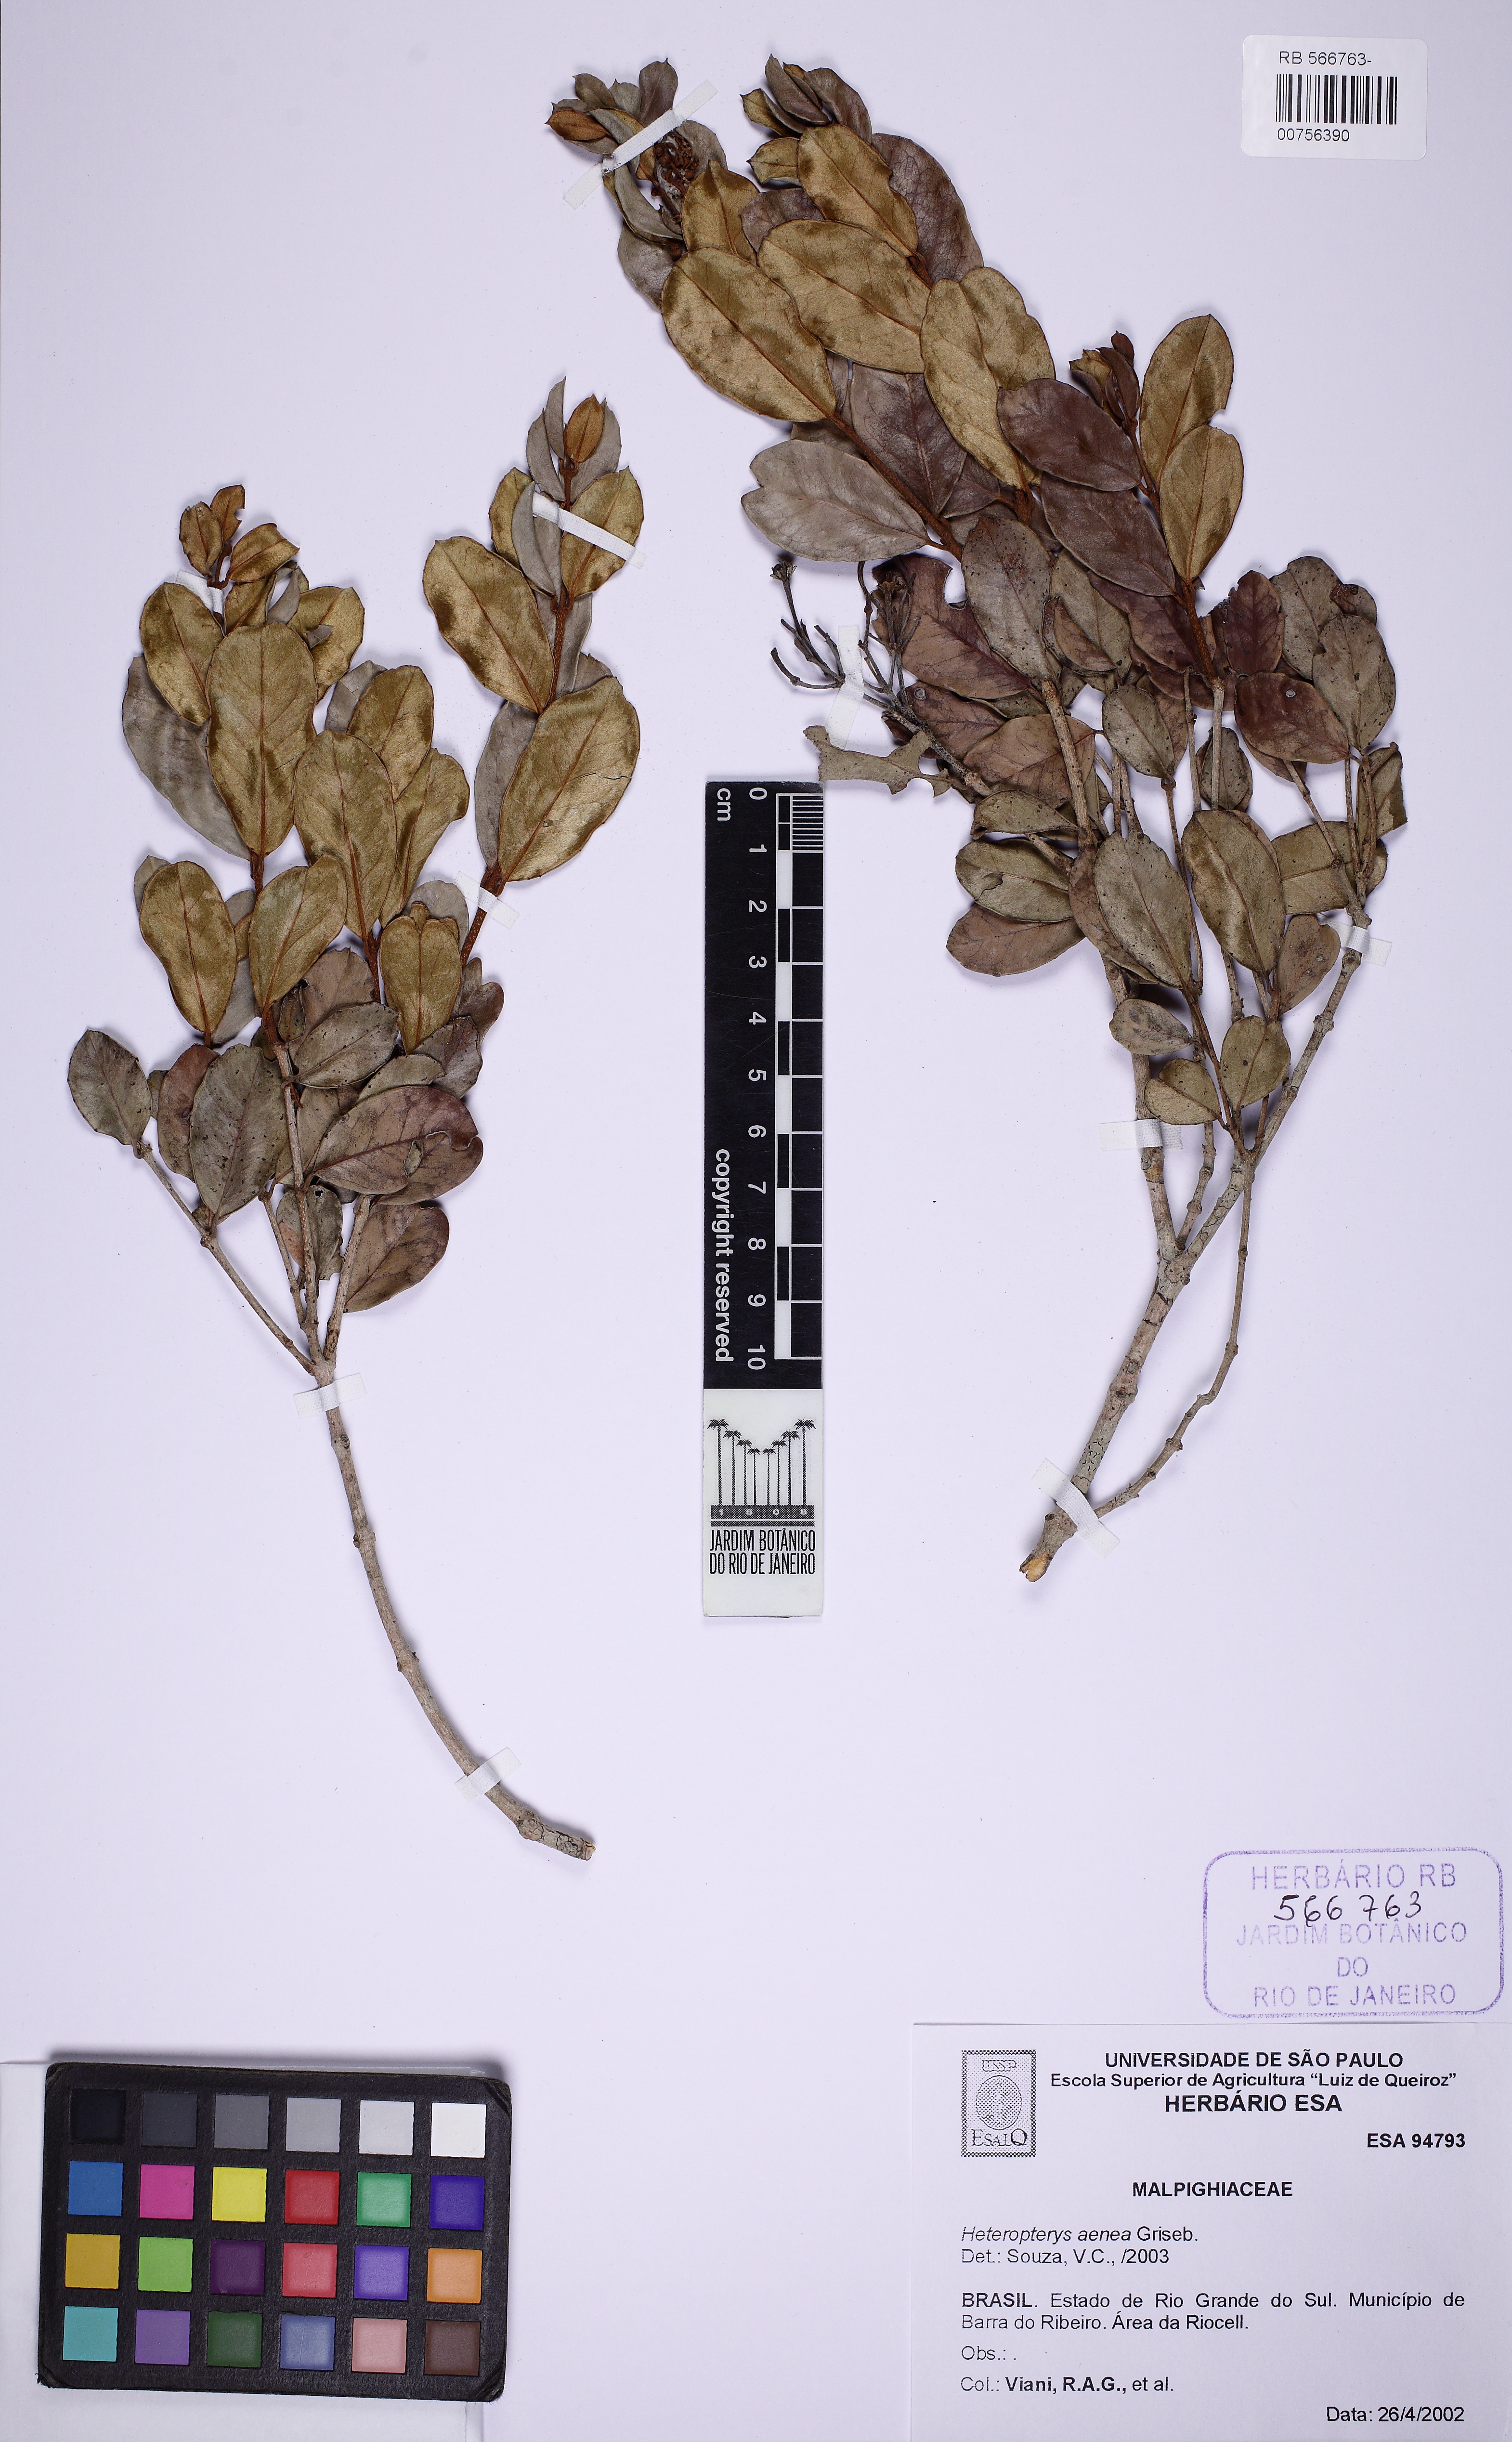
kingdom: Plantae
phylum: Tracheophyta
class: Magnoliopsida
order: Malpighiales
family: Malpighiaceae
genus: Heteropterys
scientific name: Heteropterys aenea
